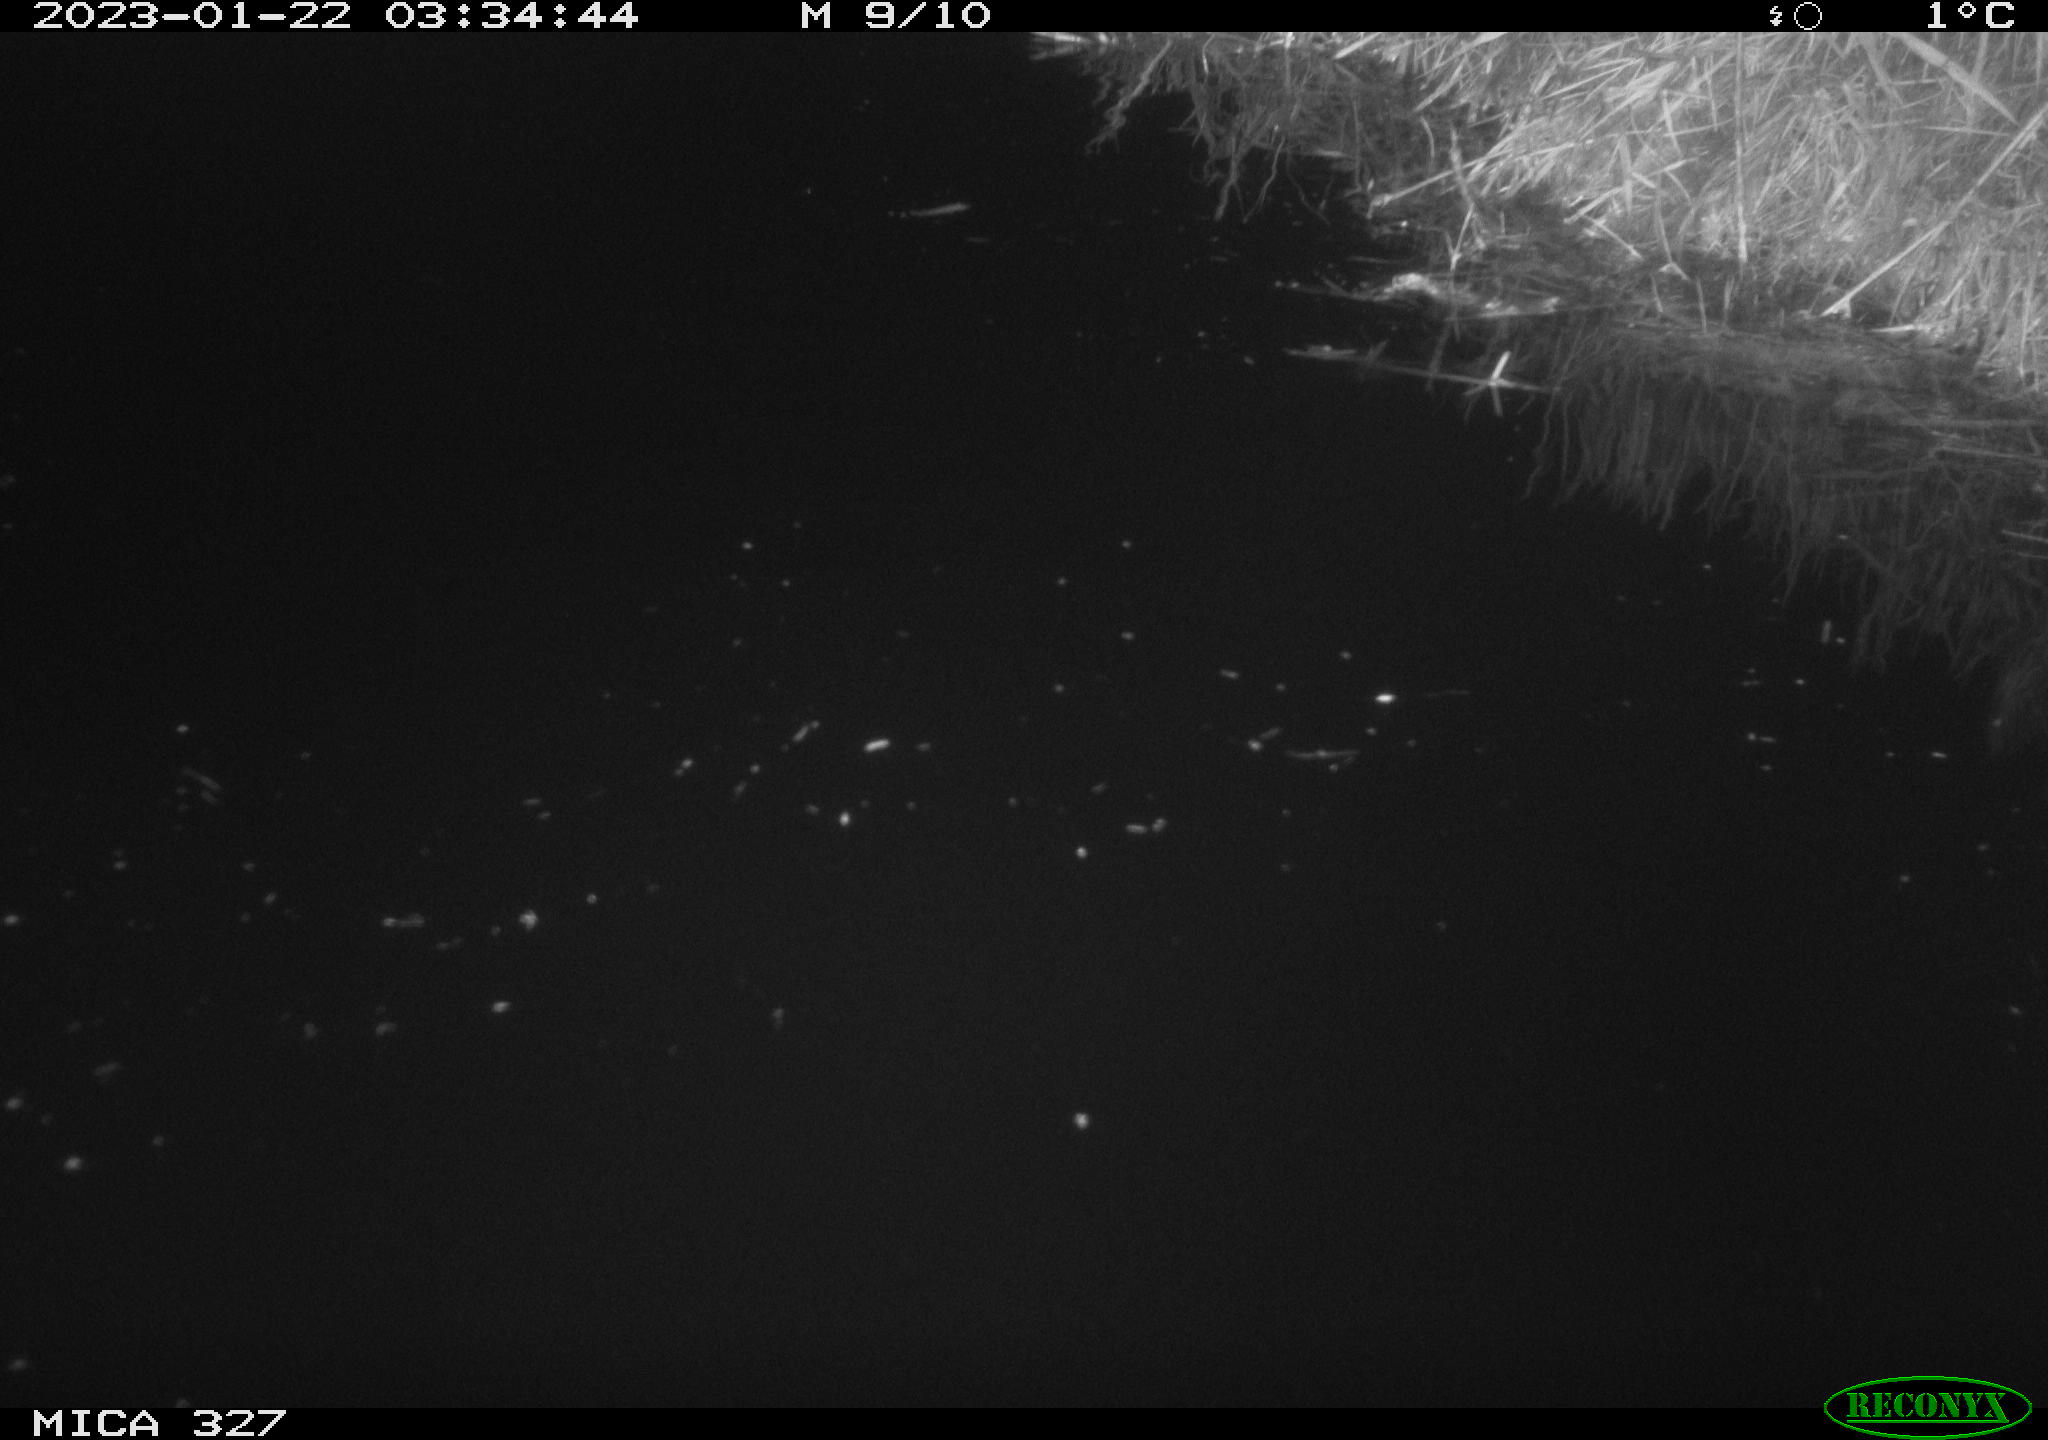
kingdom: Animalia
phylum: Chordata
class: Mammalia
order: Rodentia
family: Cricetidae
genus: Ondatra
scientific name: Ondatra zibethicus
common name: Muskrat
